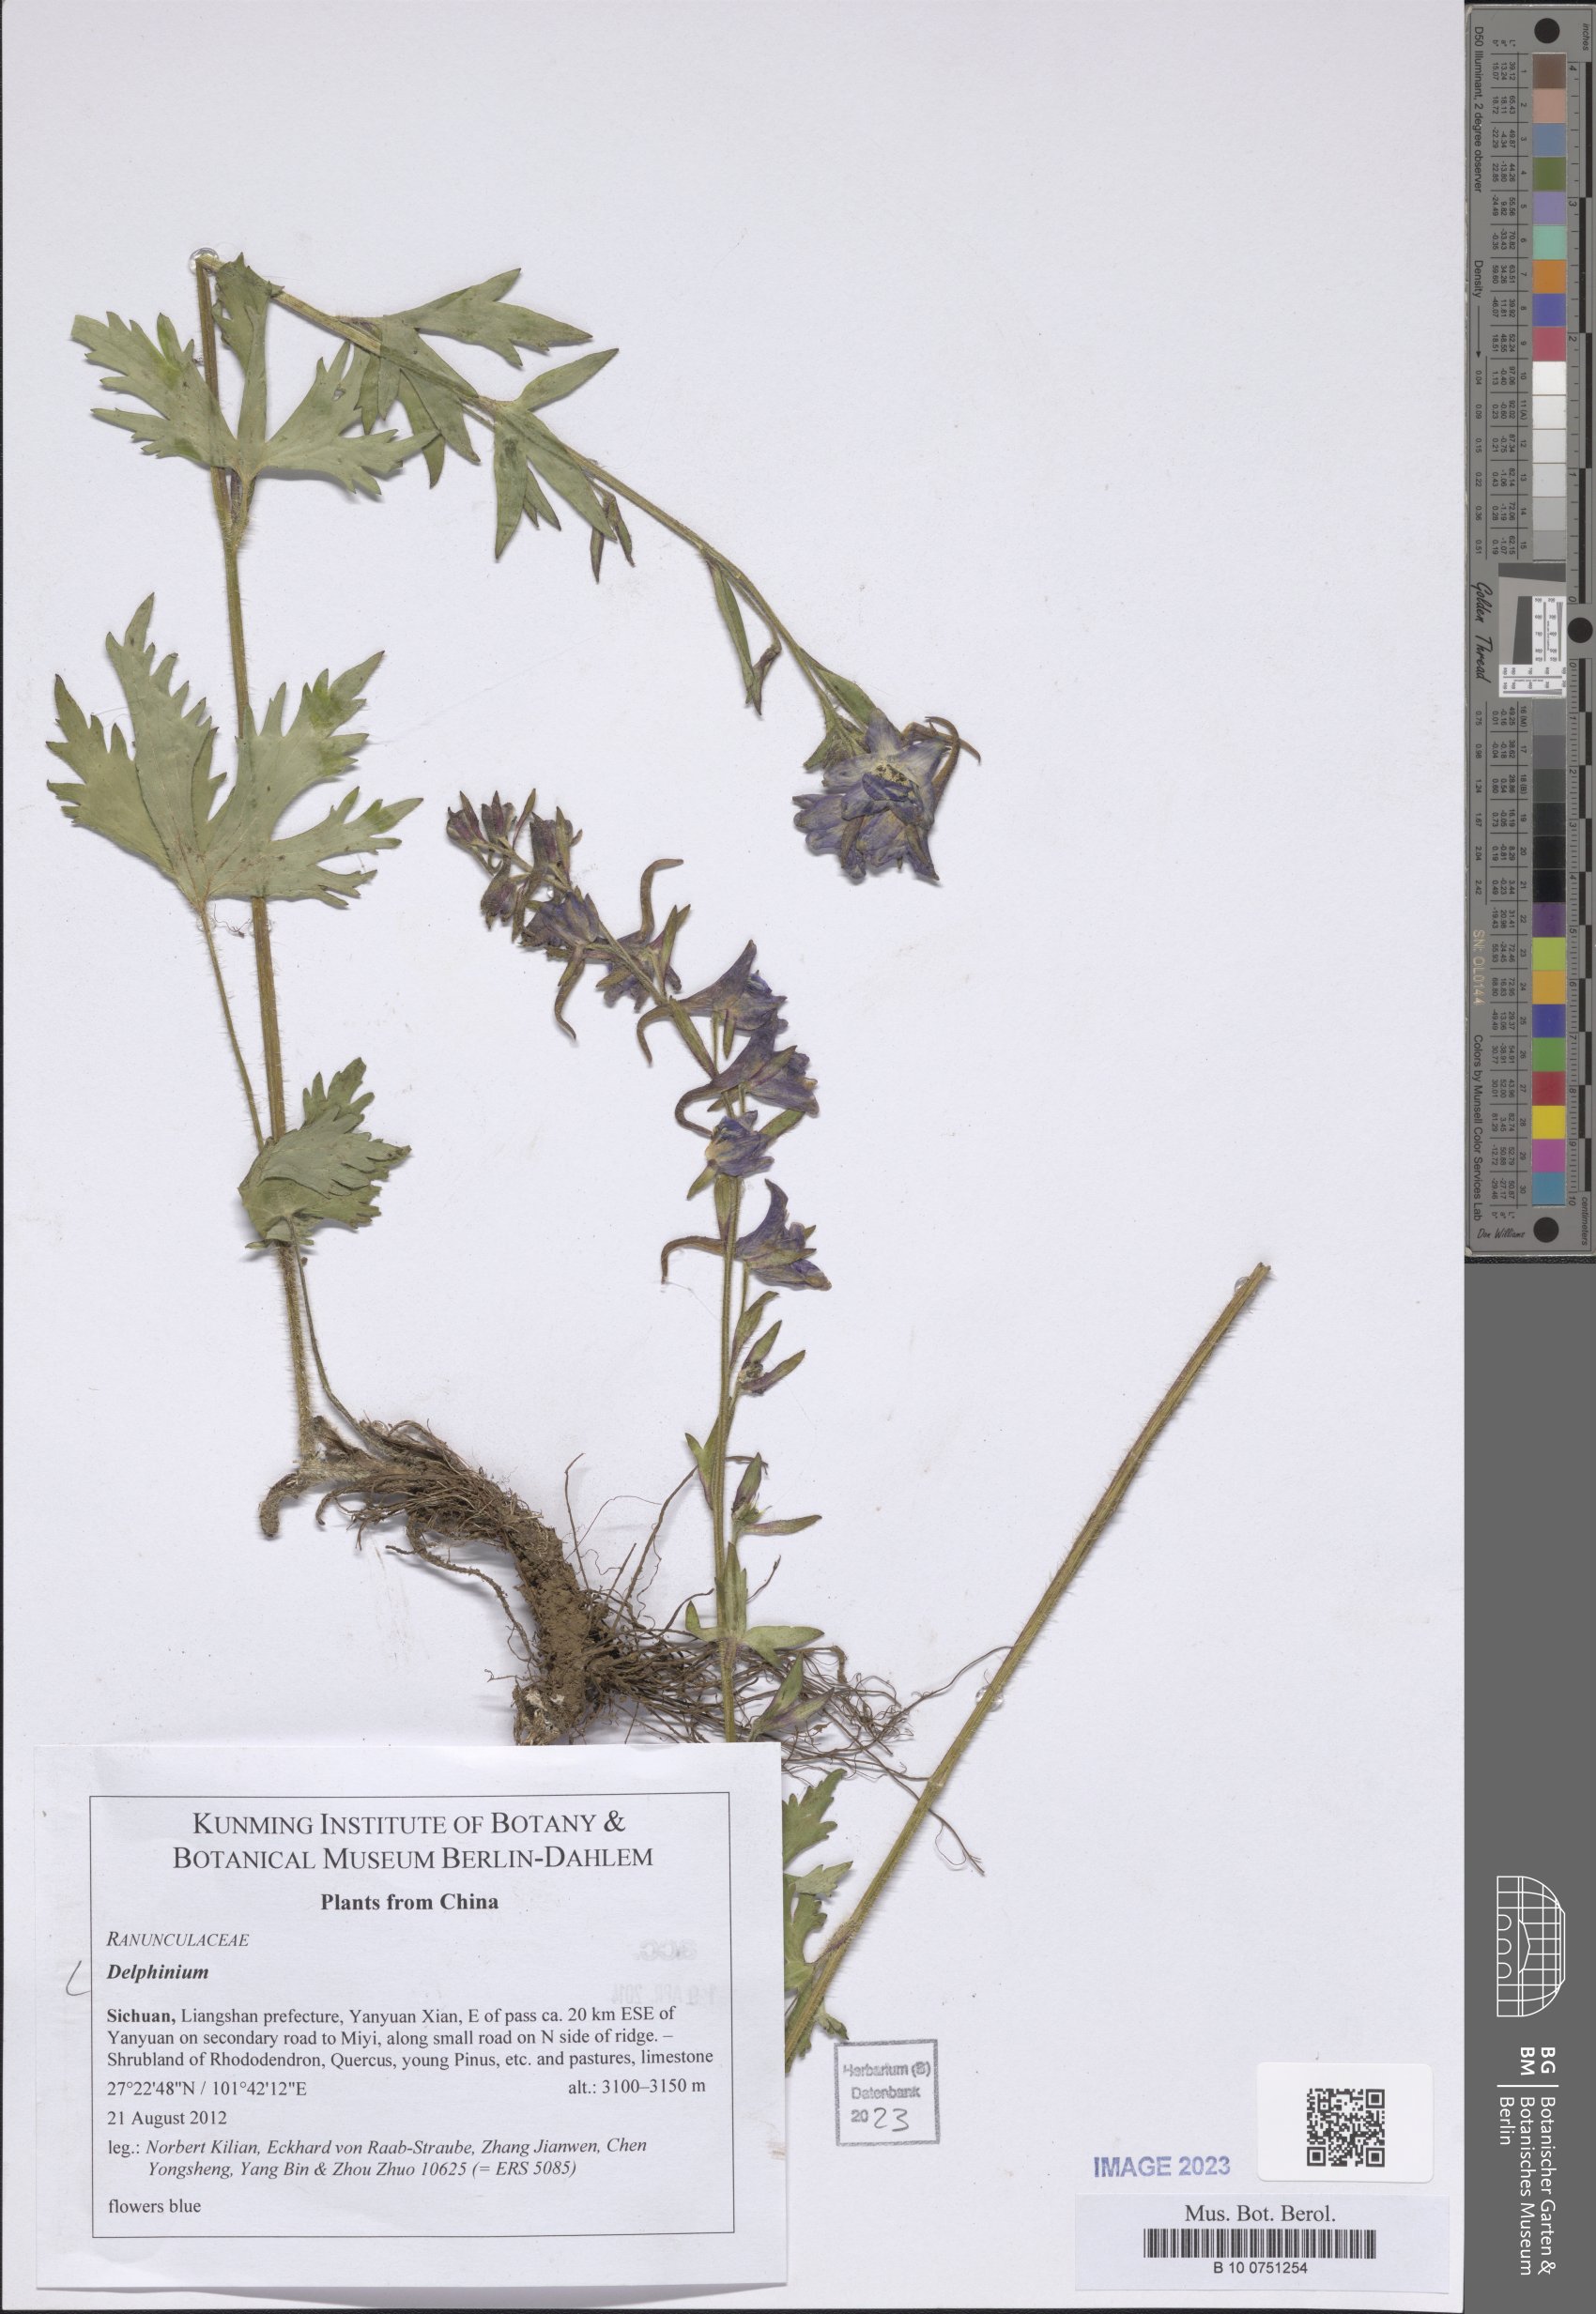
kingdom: Plantae
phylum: Tracheophyta
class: Magnoliopsida
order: Ranunculales
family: Ranunculaceae
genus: Delphinium
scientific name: Delphinium
